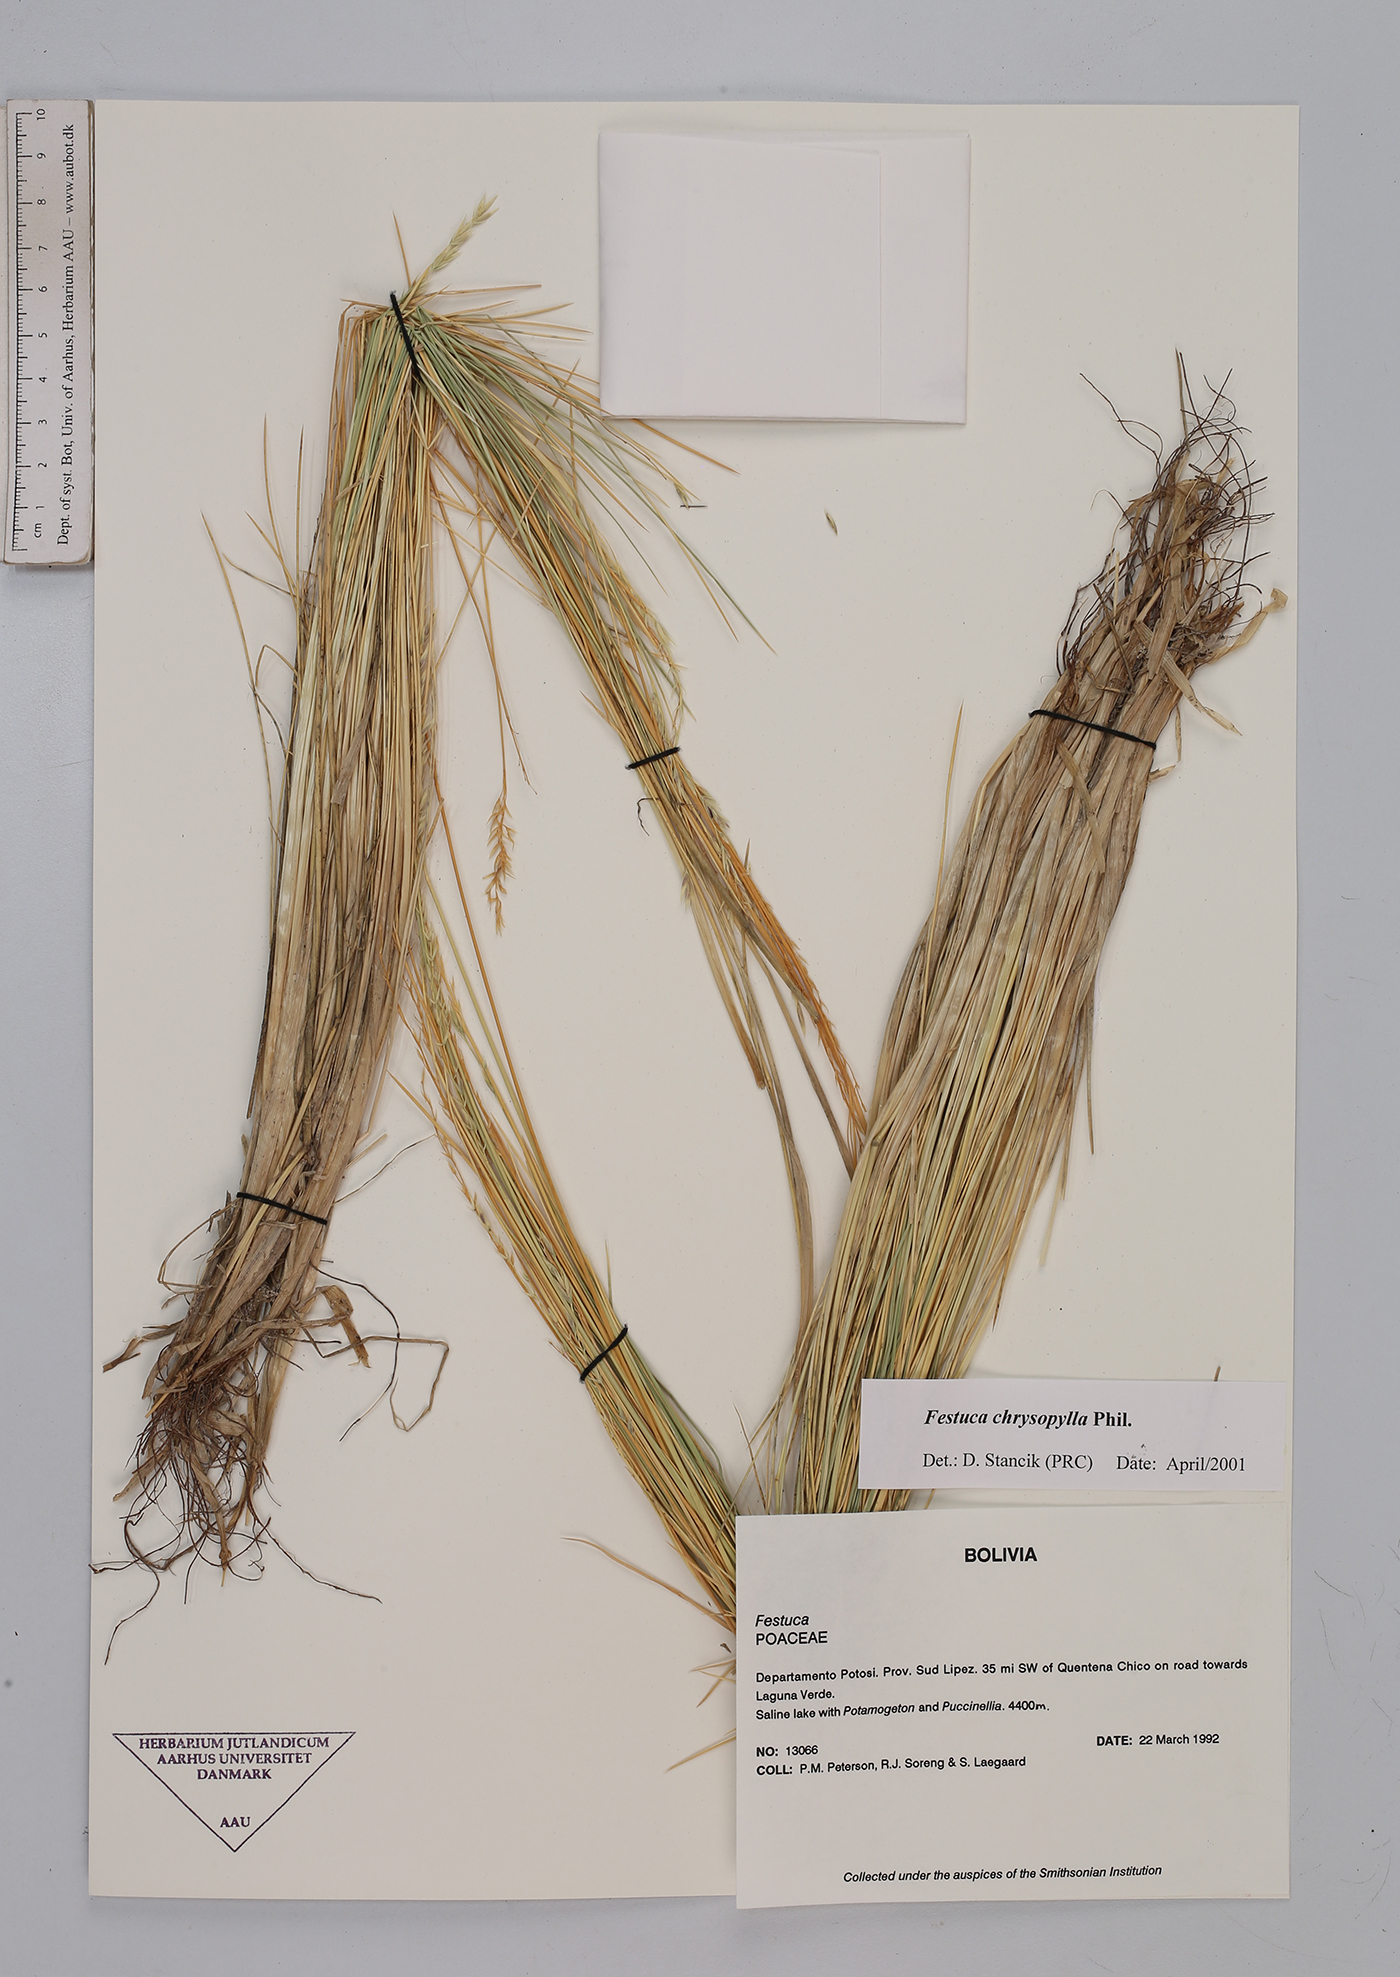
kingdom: Plantae
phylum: Tracheophyta
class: Liliopsida
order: Poales
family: Poaceae
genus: Festuca
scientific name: Festuca chrysophylla
